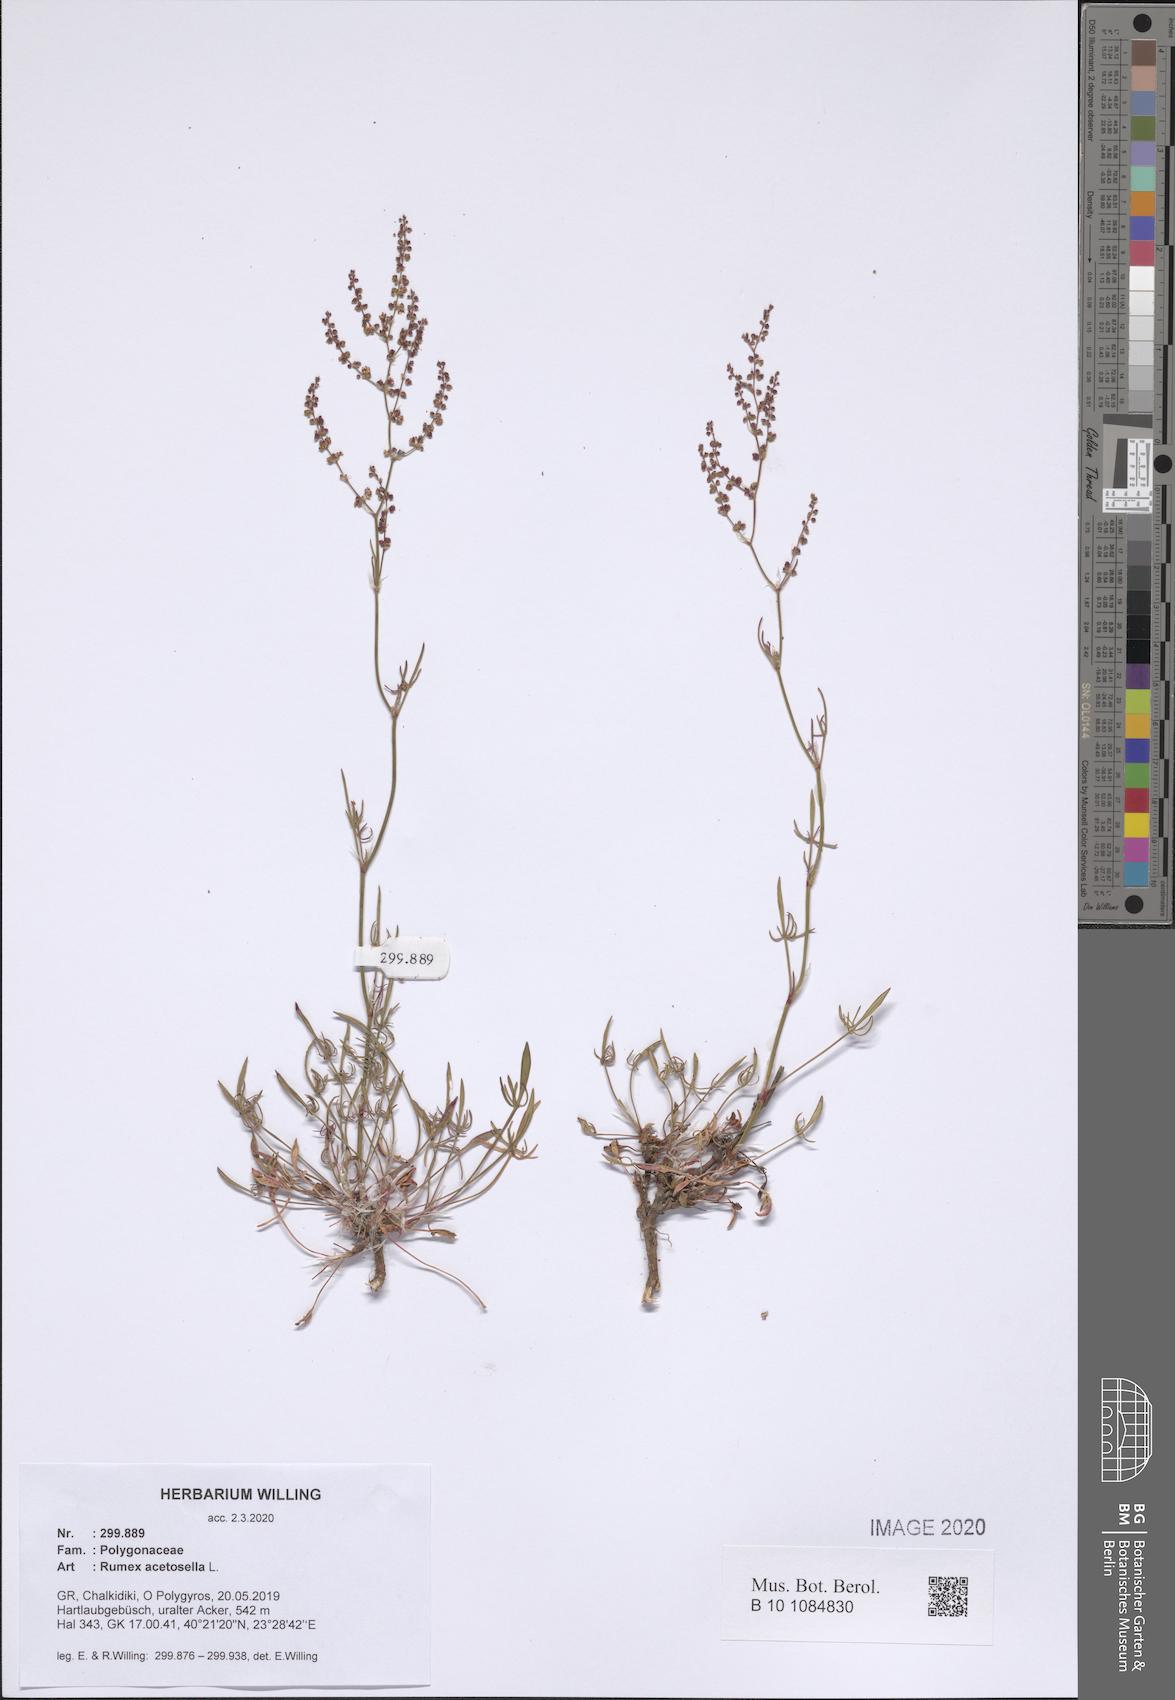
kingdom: Plantae
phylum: Tracheophyta
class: Magnoliopsida
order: Caryophyllales
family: Polygonaceae
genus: Rumex
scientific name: Rumex acetosella
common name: Common sheep sorrel
